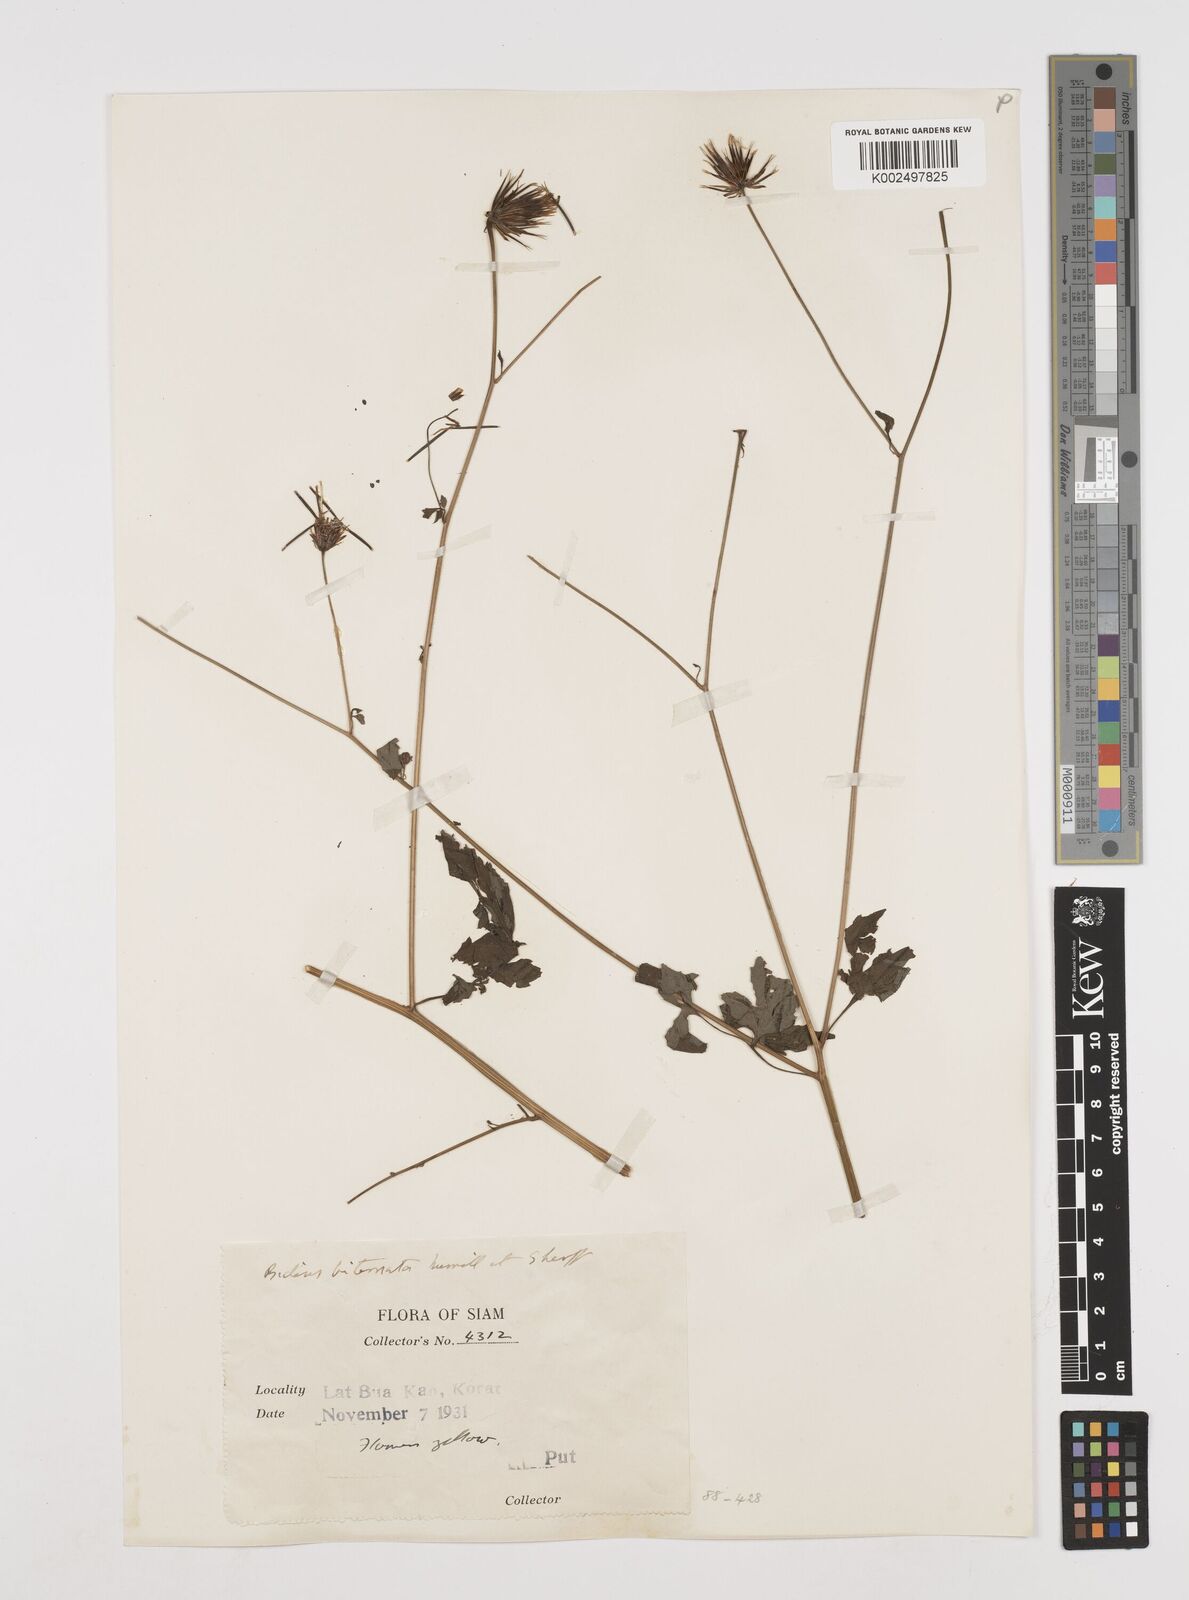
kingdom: Plantae
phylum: Tracheophyta
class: Magnoliopsida
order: Asterales
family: Asteraceae
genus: Bidens
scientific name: Bidens biternata
